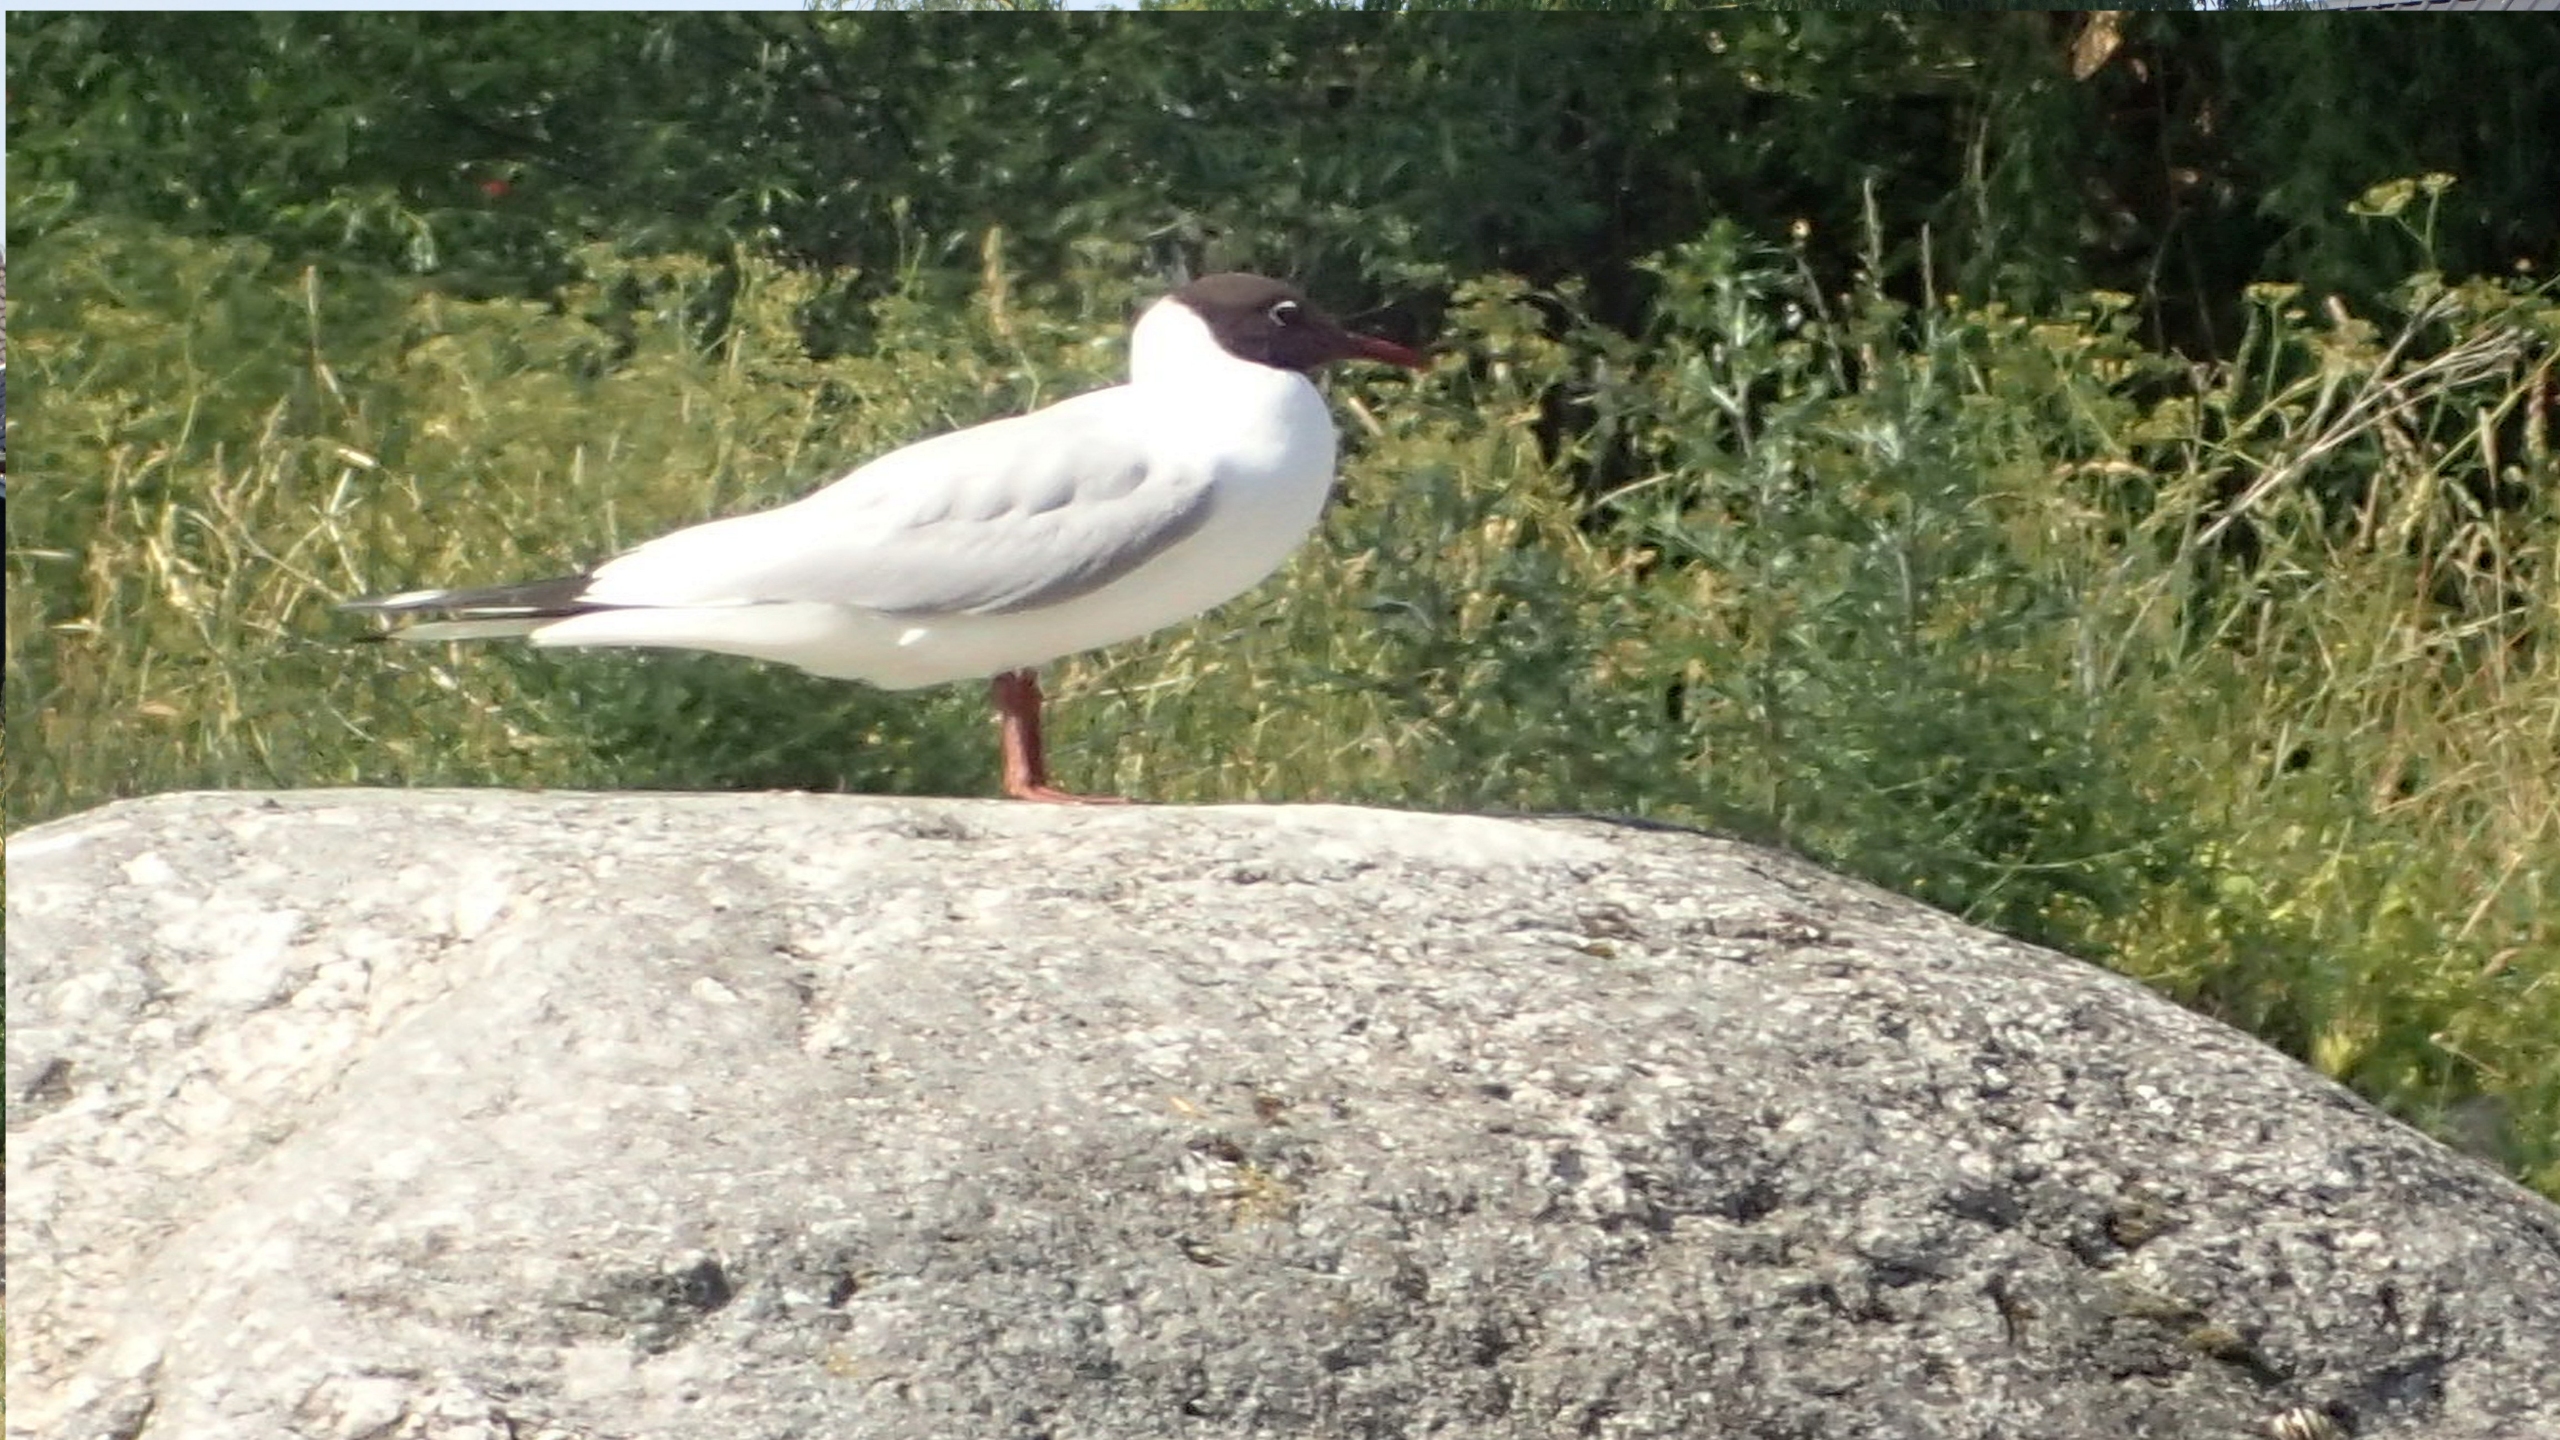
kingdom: Animalia
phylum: Chordata
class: Aves
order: Charadriiformes
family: Laridae
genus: Chroicocephalus
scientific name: Chroicocephalus ridibundus
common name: Hættemåge
